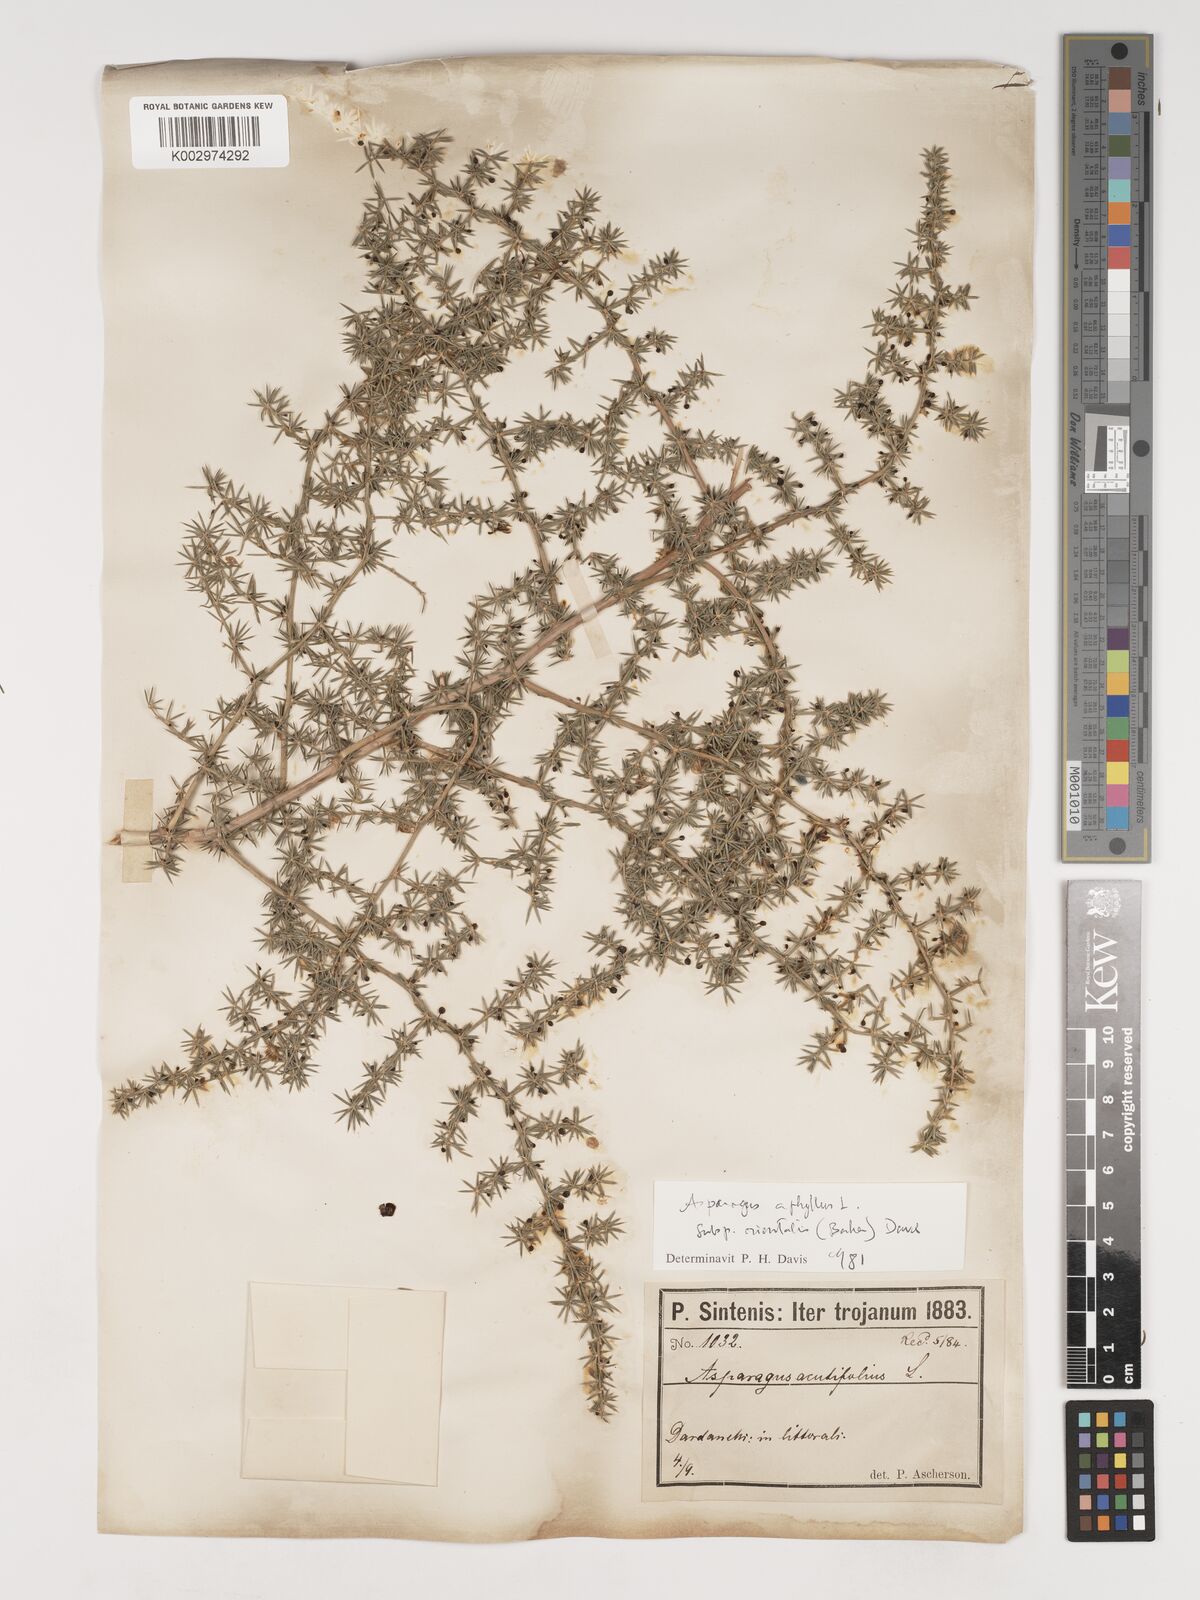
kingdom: Plantae
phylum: Tracheophyta
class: Liliopsida
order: Asparagales
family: Asparagaceae
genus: Asparagus
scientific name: Asparagus aphyllus
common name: Mediterranean asparagus
